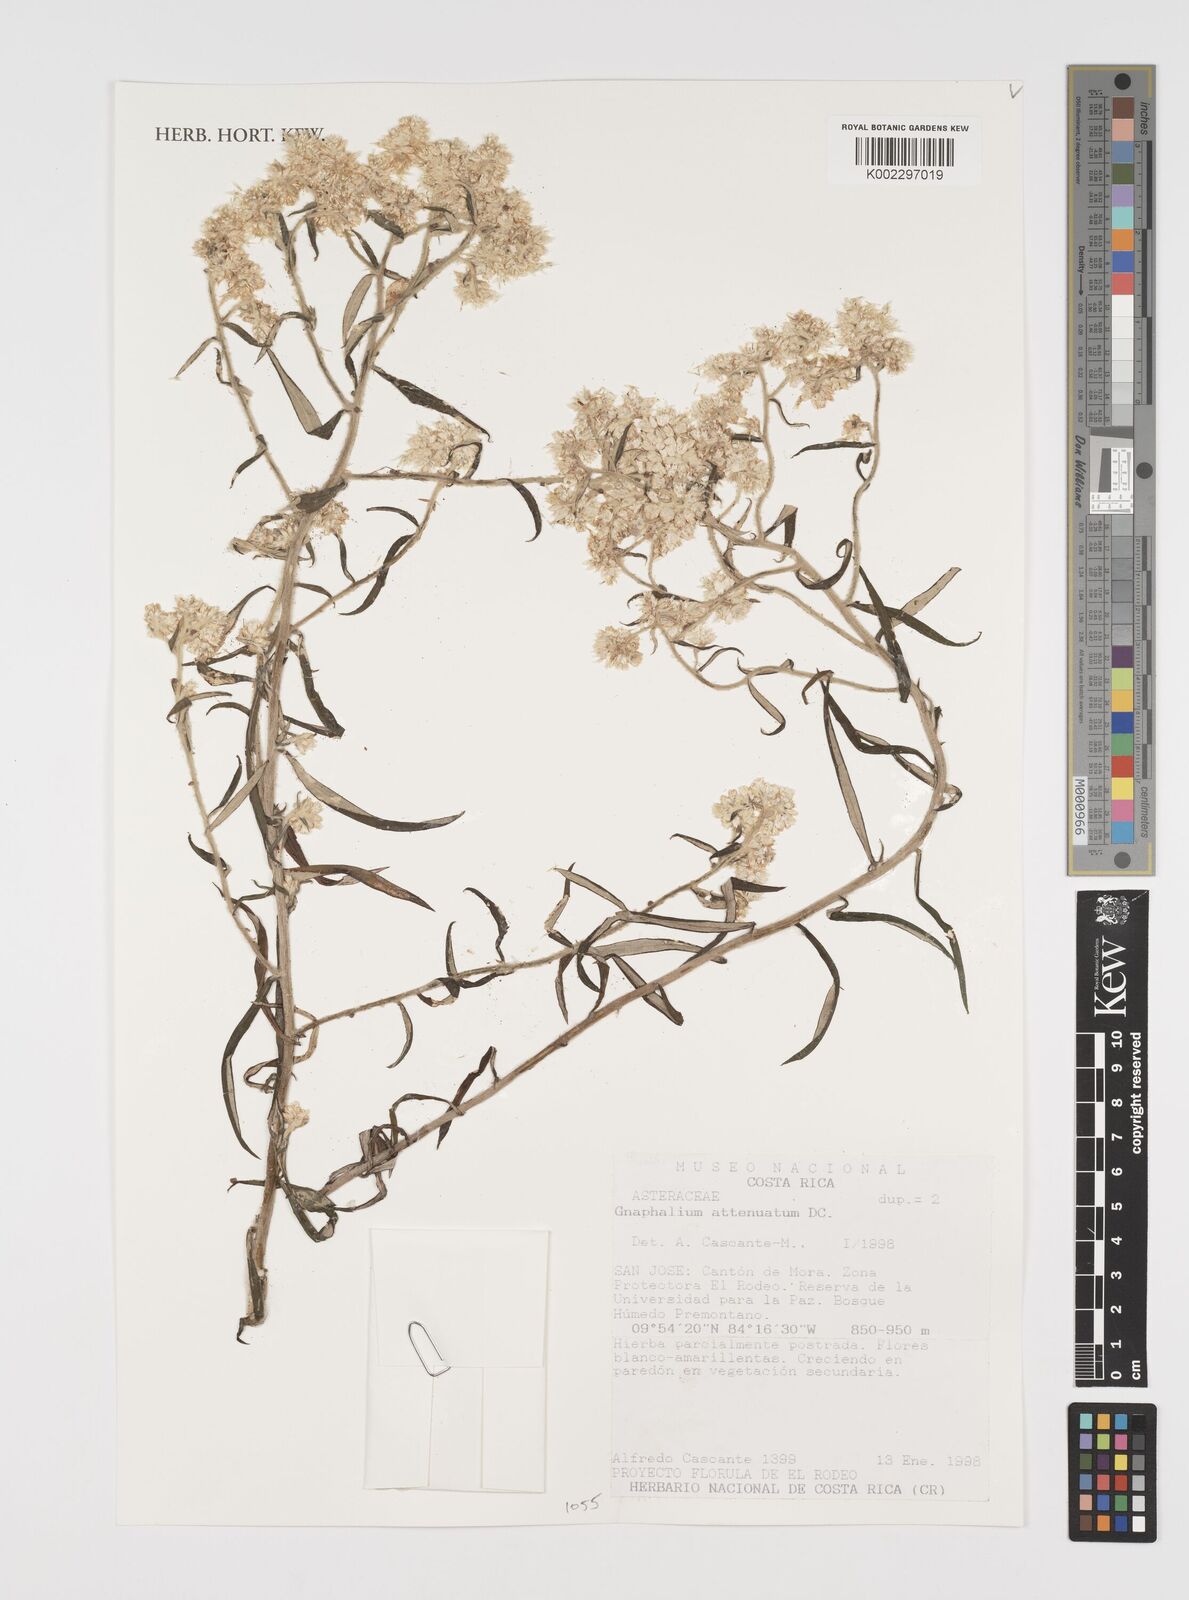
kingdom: Plantae
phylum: Tracheophyta
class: Magnoliopsida
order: Asterales
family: Asteraceae
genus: Pseudognaphalium
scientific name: Pseudognaphalium attenuatum
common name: Tapered cudweed
